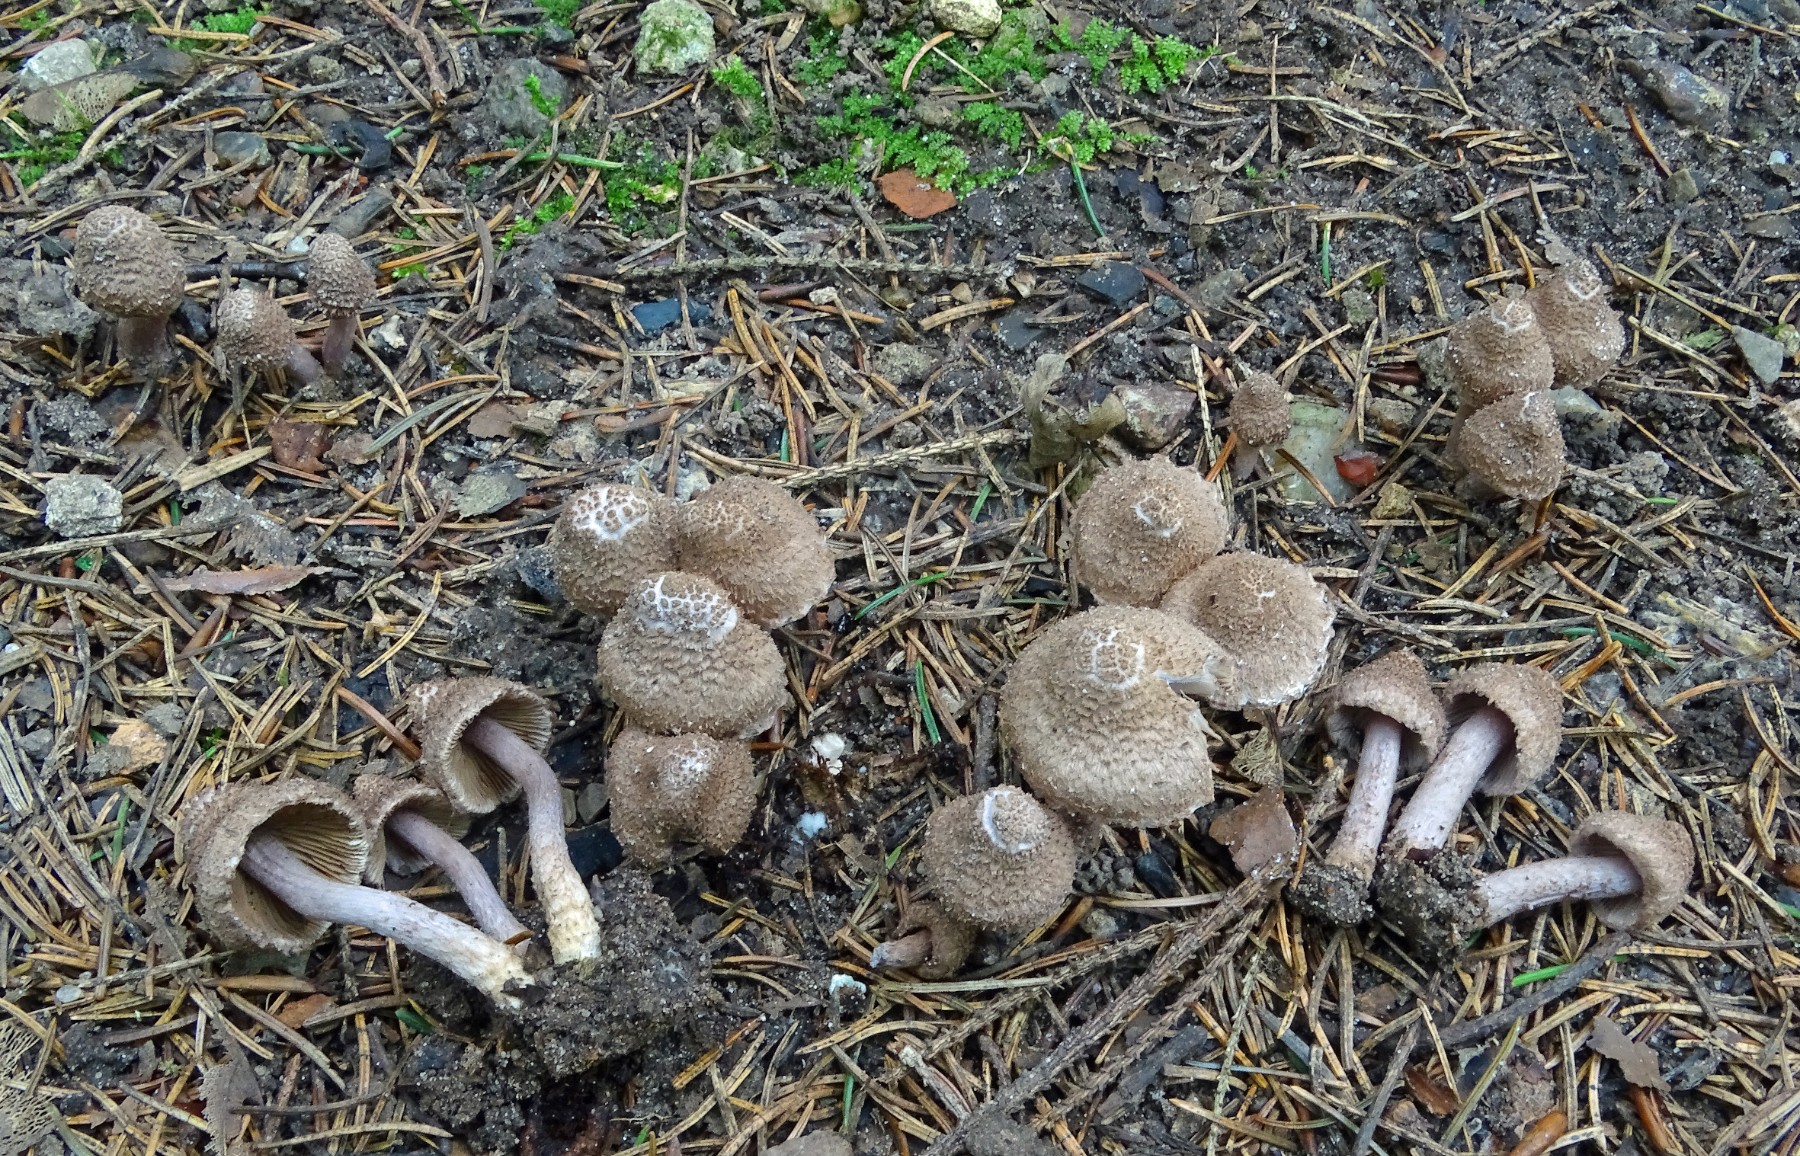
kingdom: Fungi
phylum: Basidiomycota
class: Agaricomycetes
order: Agaricales
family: Inocybaceae
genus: Inocybe
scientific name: Inocybe cincinnata
